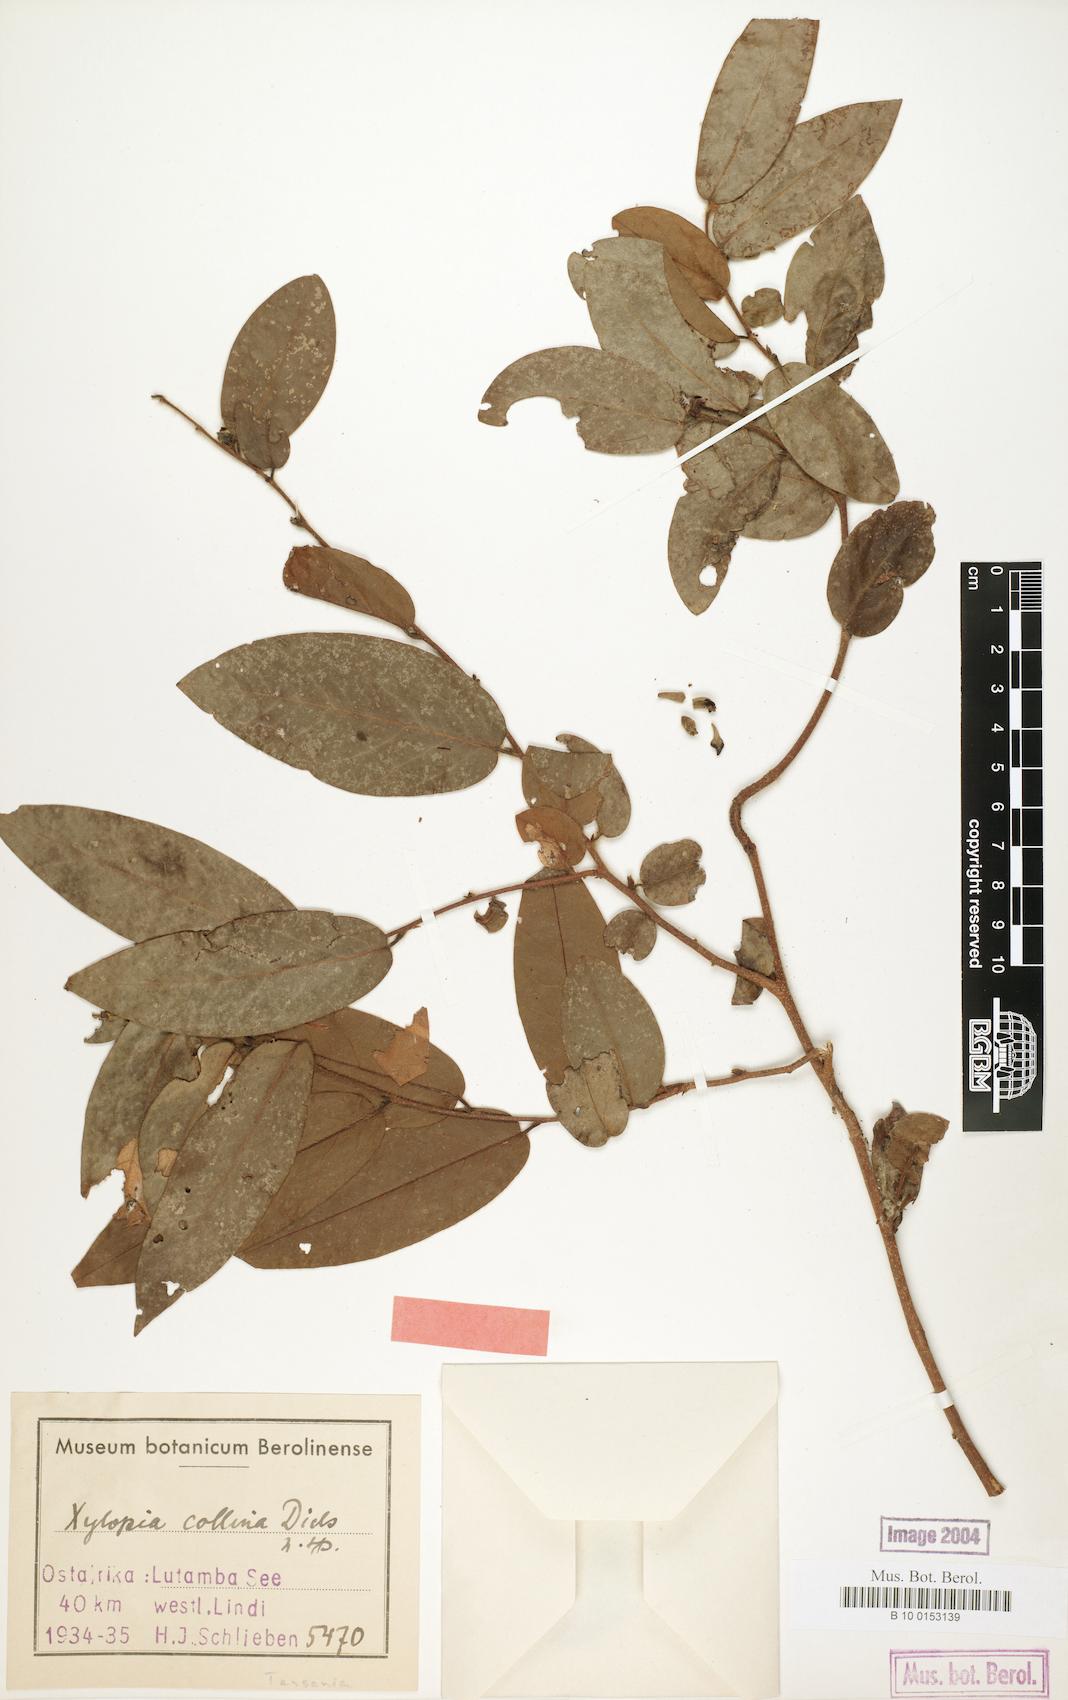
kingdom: Plantae
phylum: Tracheophyta
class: Magnoliopsida
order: Magnoliales
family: Annonaceae
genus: Xylopia
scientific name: Xylopia collina
